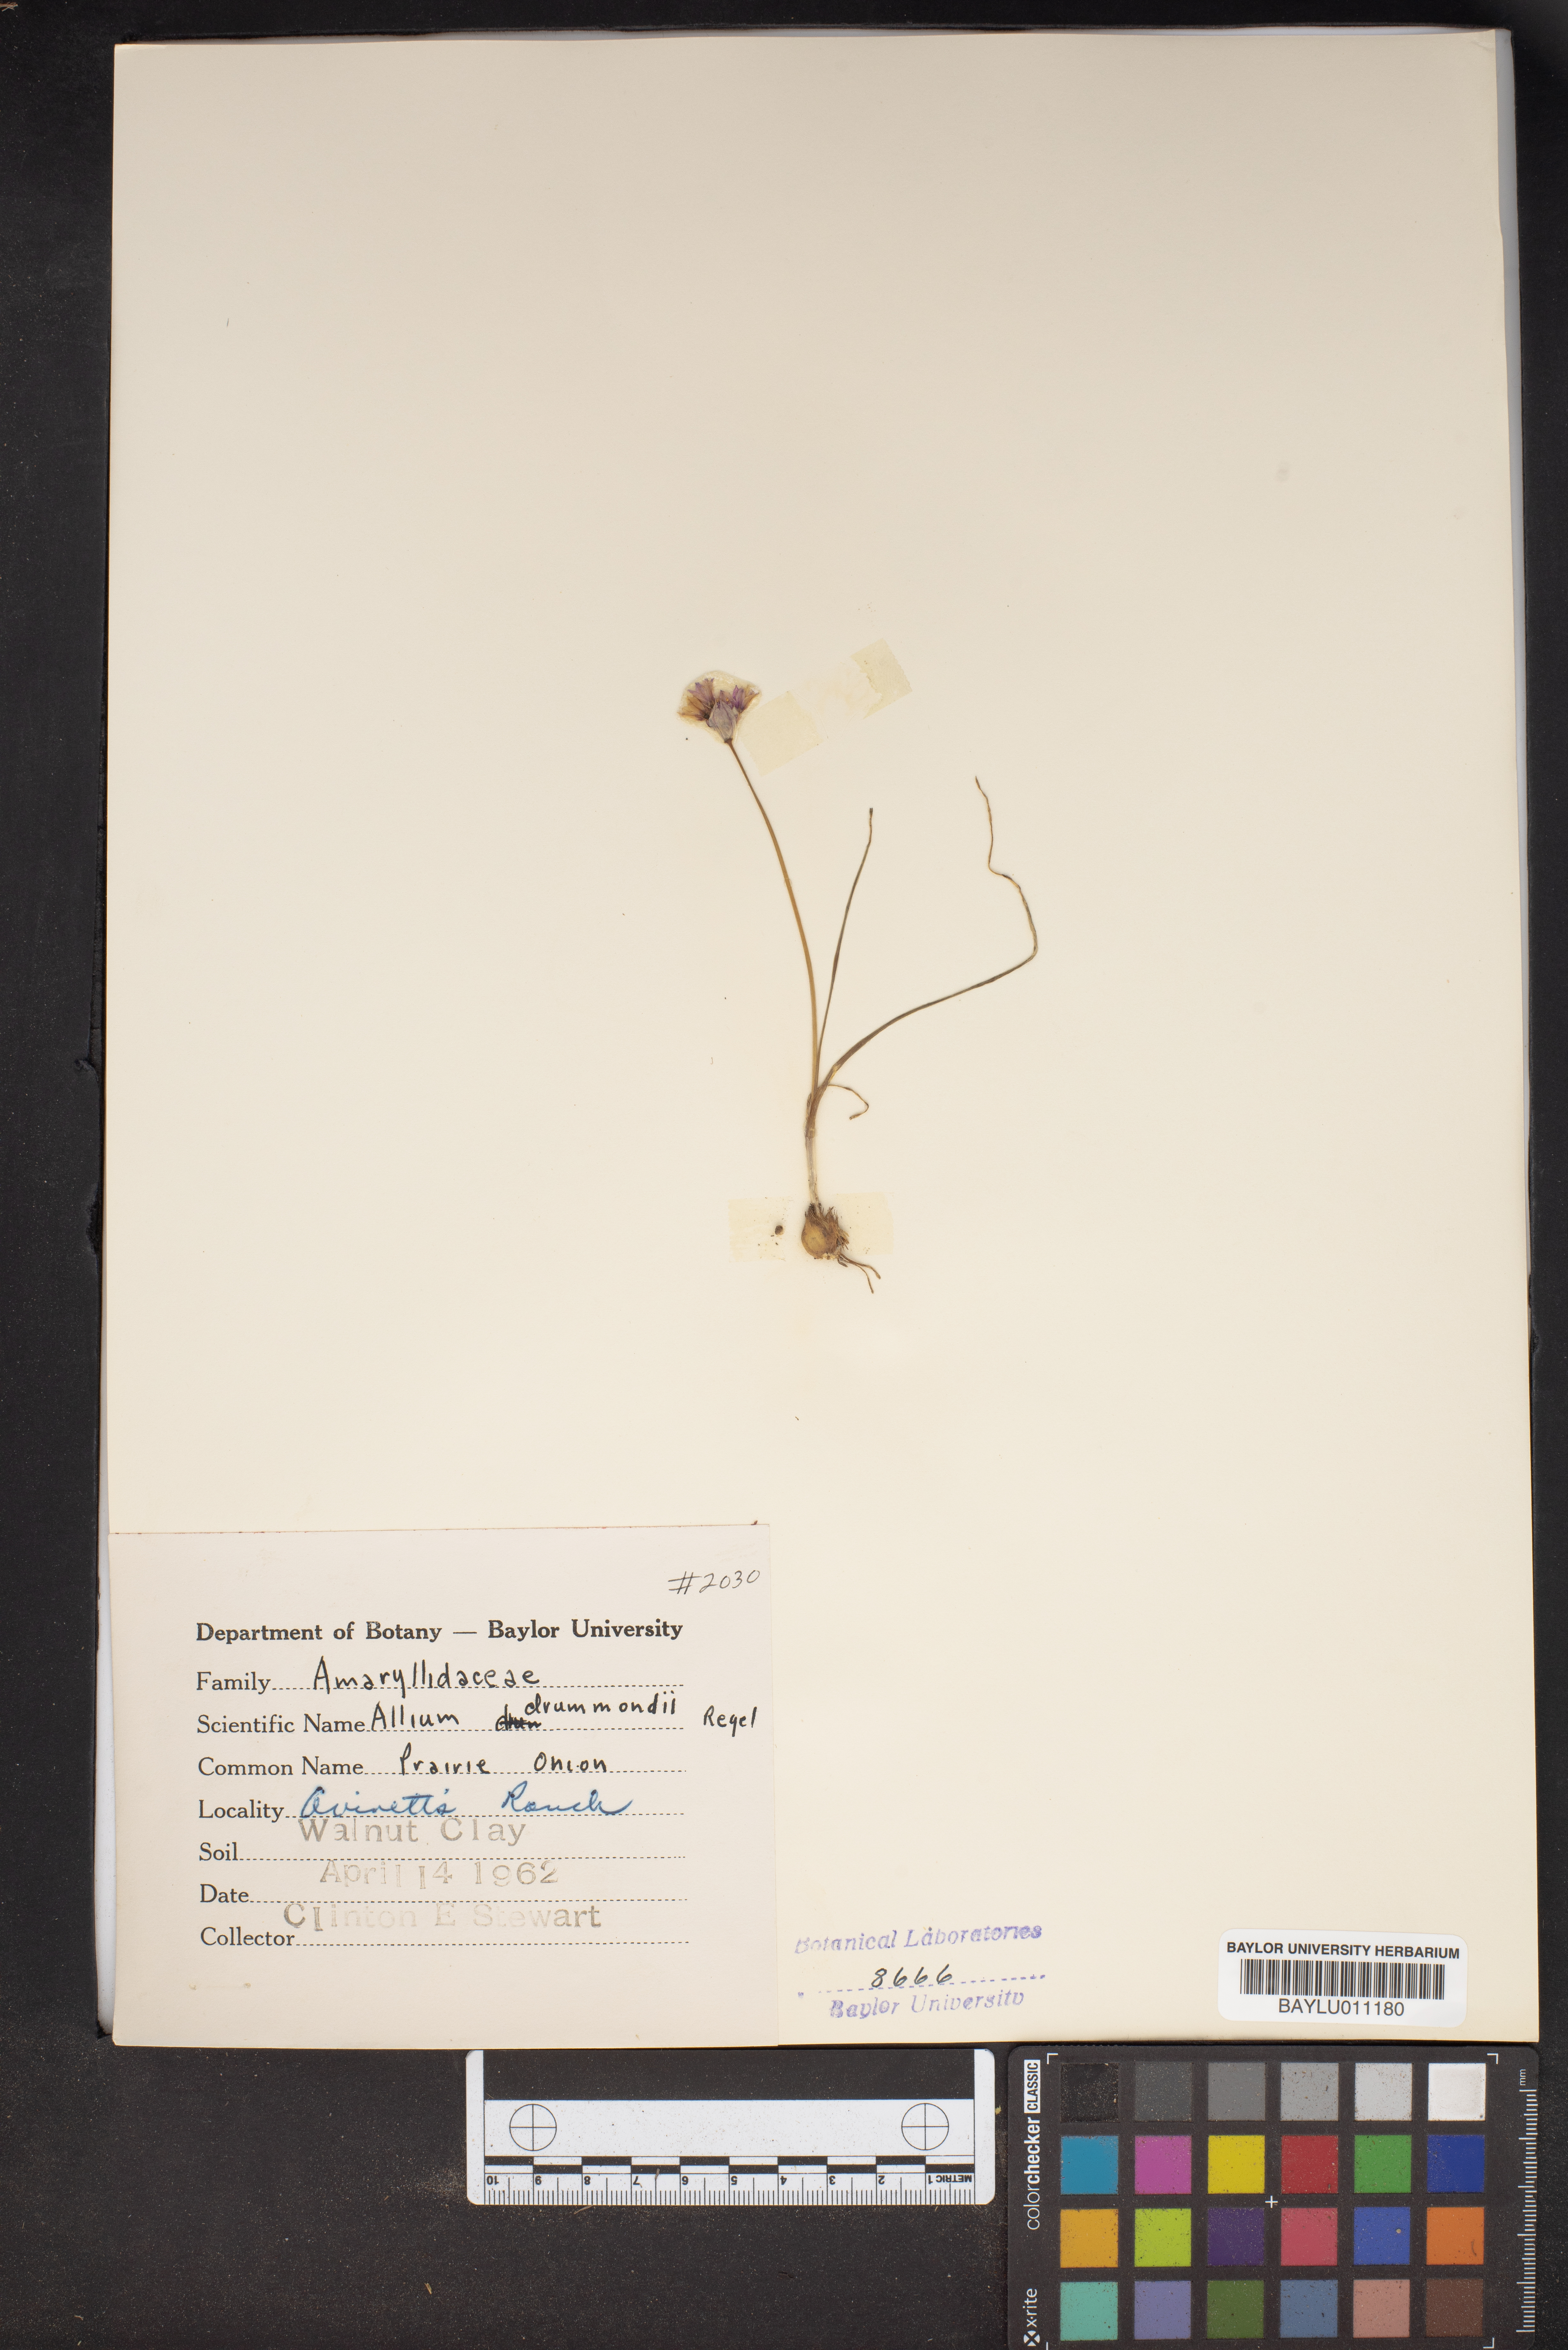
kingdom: Plantae
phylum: Tracheophyta
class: Liliopsida
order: Asparagales
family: Amaryllidaceae
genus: Allium
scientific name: Allium drummondii
